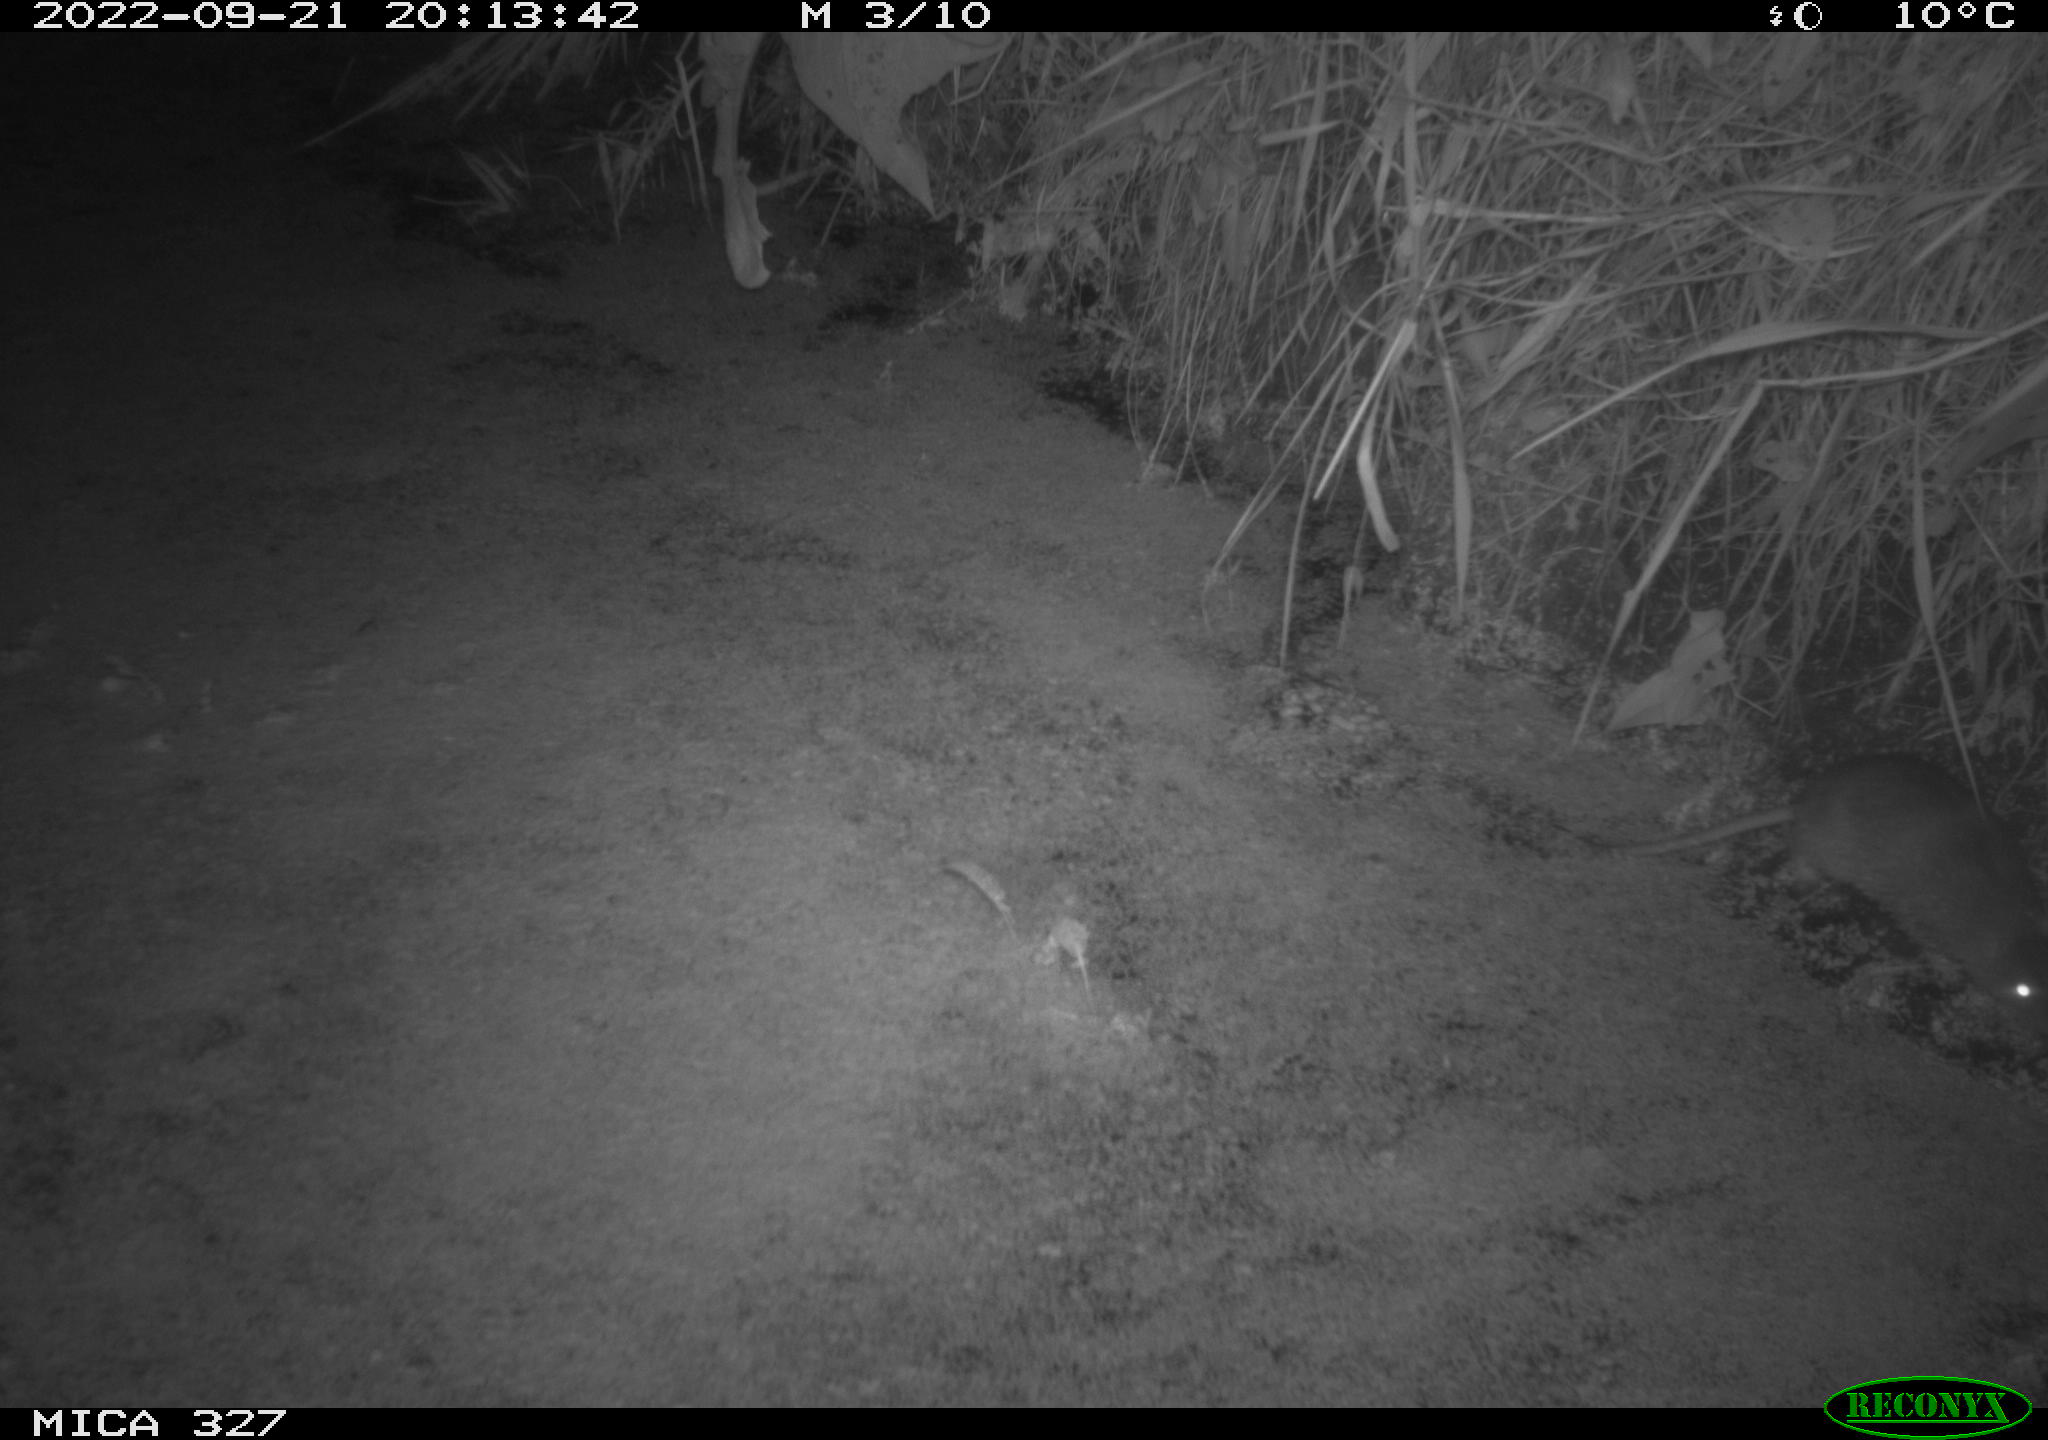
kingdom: Animalia
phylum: Chordata
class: Mammalia
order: Rodentia
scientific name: Rodentia
